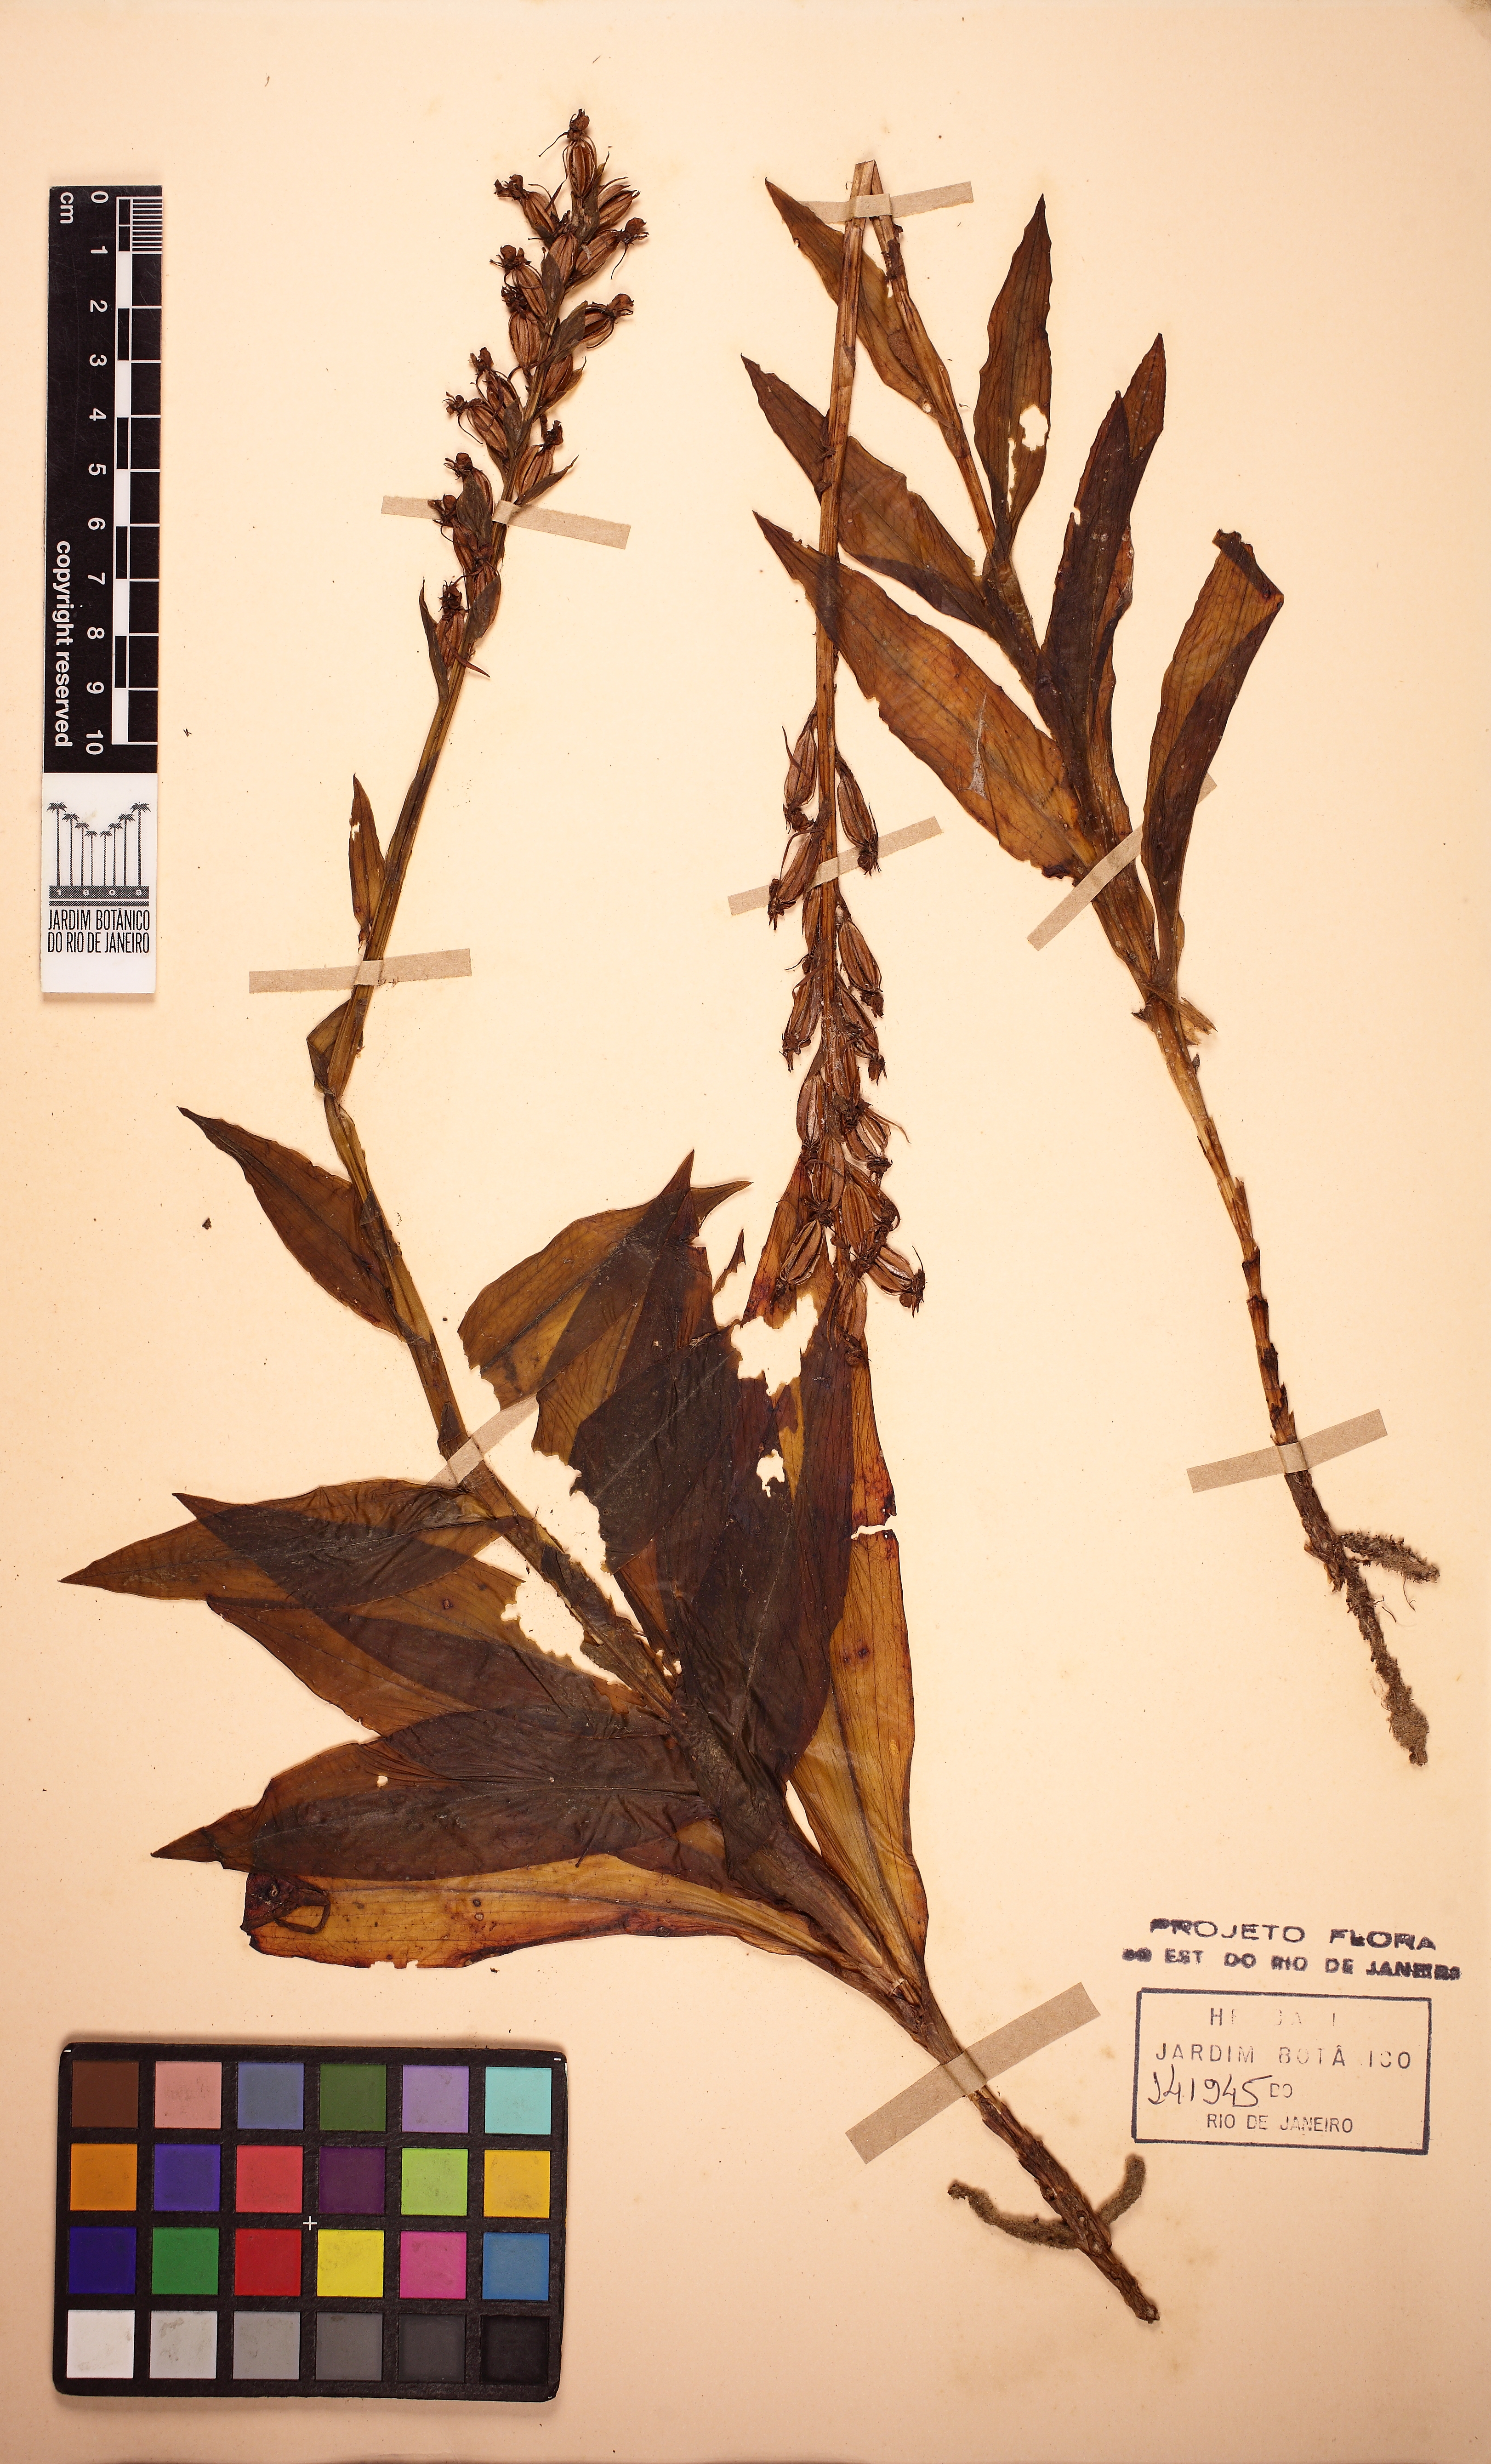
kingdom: Plantae
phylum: Tracheophyta
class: Liliopsida
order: Asparagales
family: Orchidaceae
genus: Habenaria
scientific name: Habenaria leptoceras
